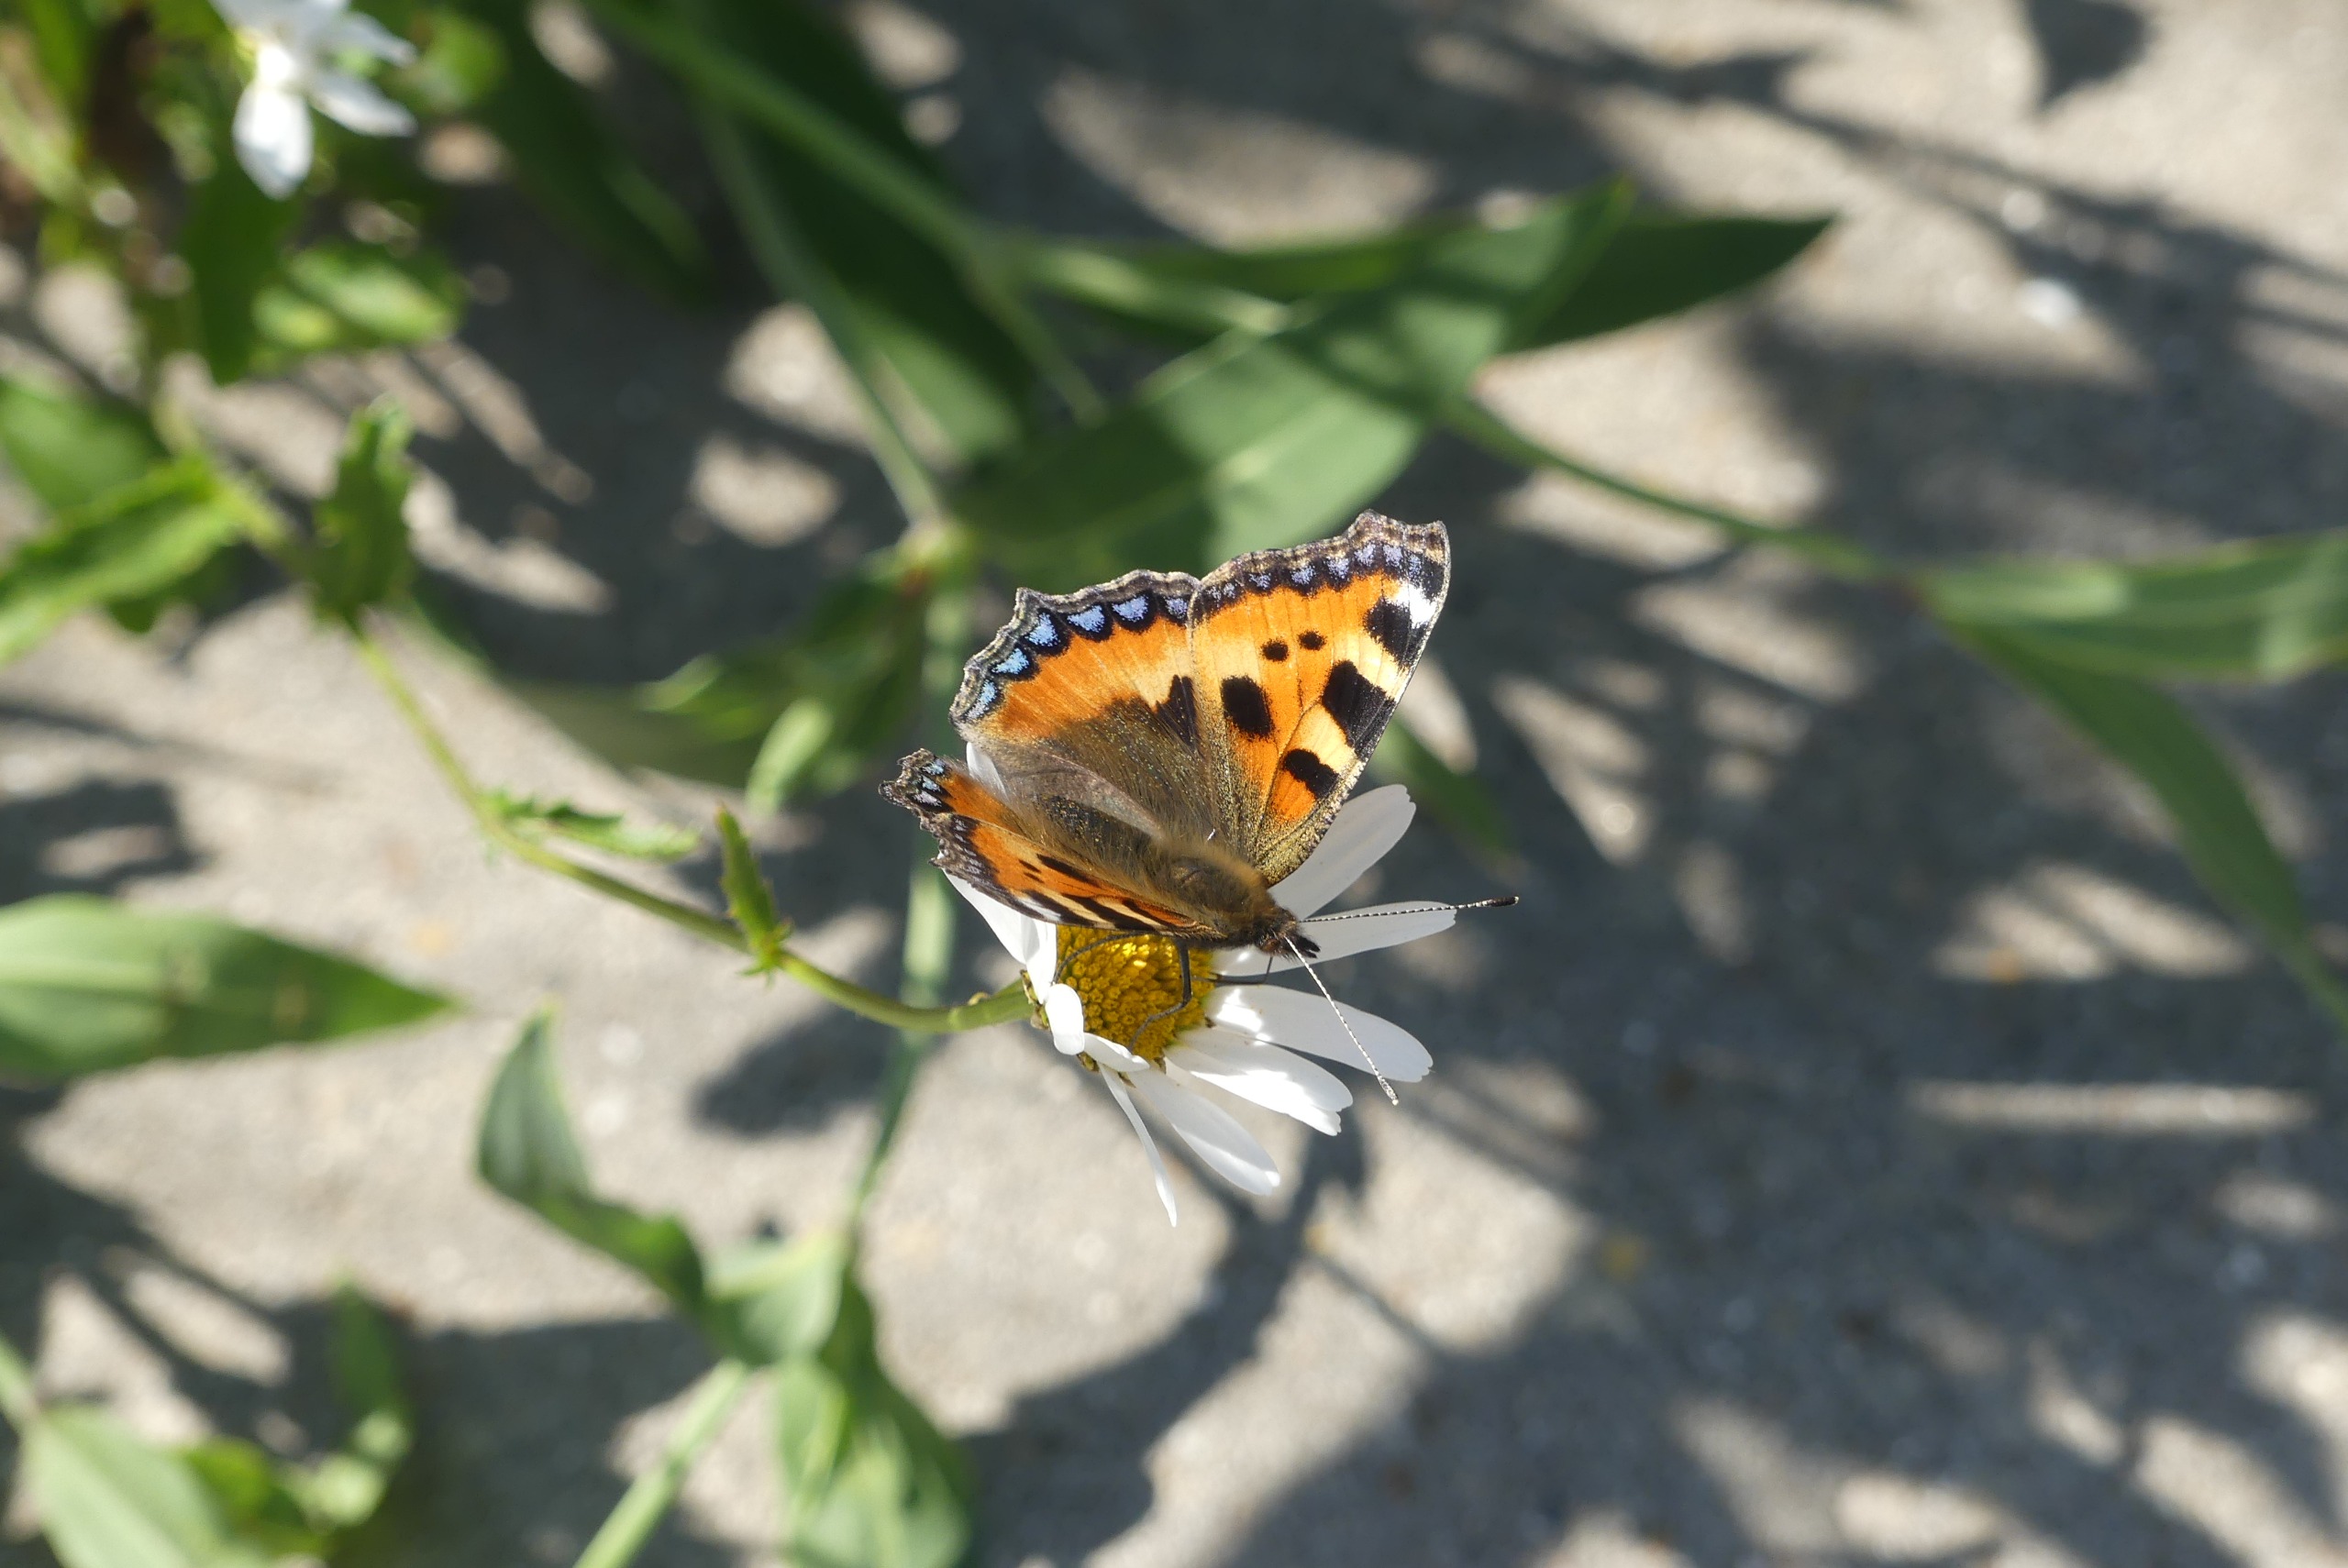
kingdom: Animalia
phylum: Arthropoda
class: Insecta
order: Lepidoptera
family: Nymphalidae
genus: Aglais
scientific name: Aglais urticae
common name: Nældens takvinge
